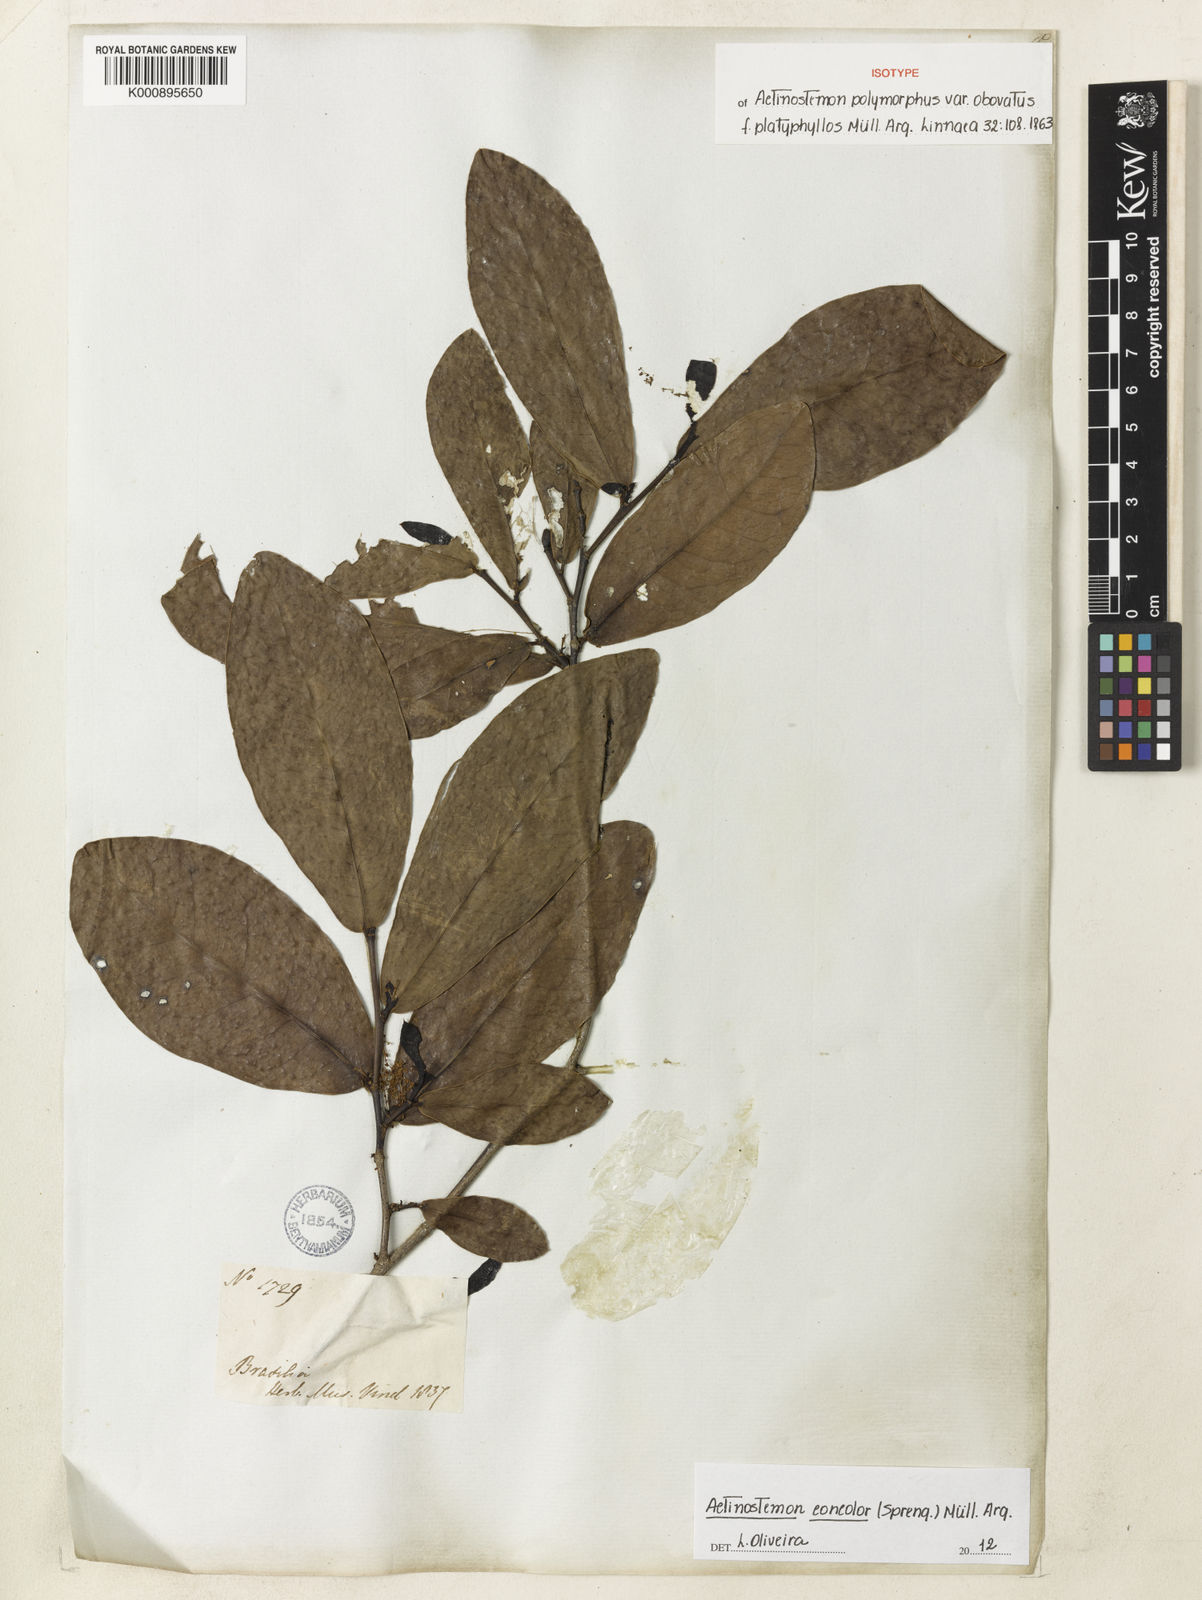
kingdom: Plantae
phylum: Tracheophyta
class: Magnoliopsida
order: Malpighiales
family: Euphorbiaceae
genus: Actinostemon
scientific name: Actinostemon
